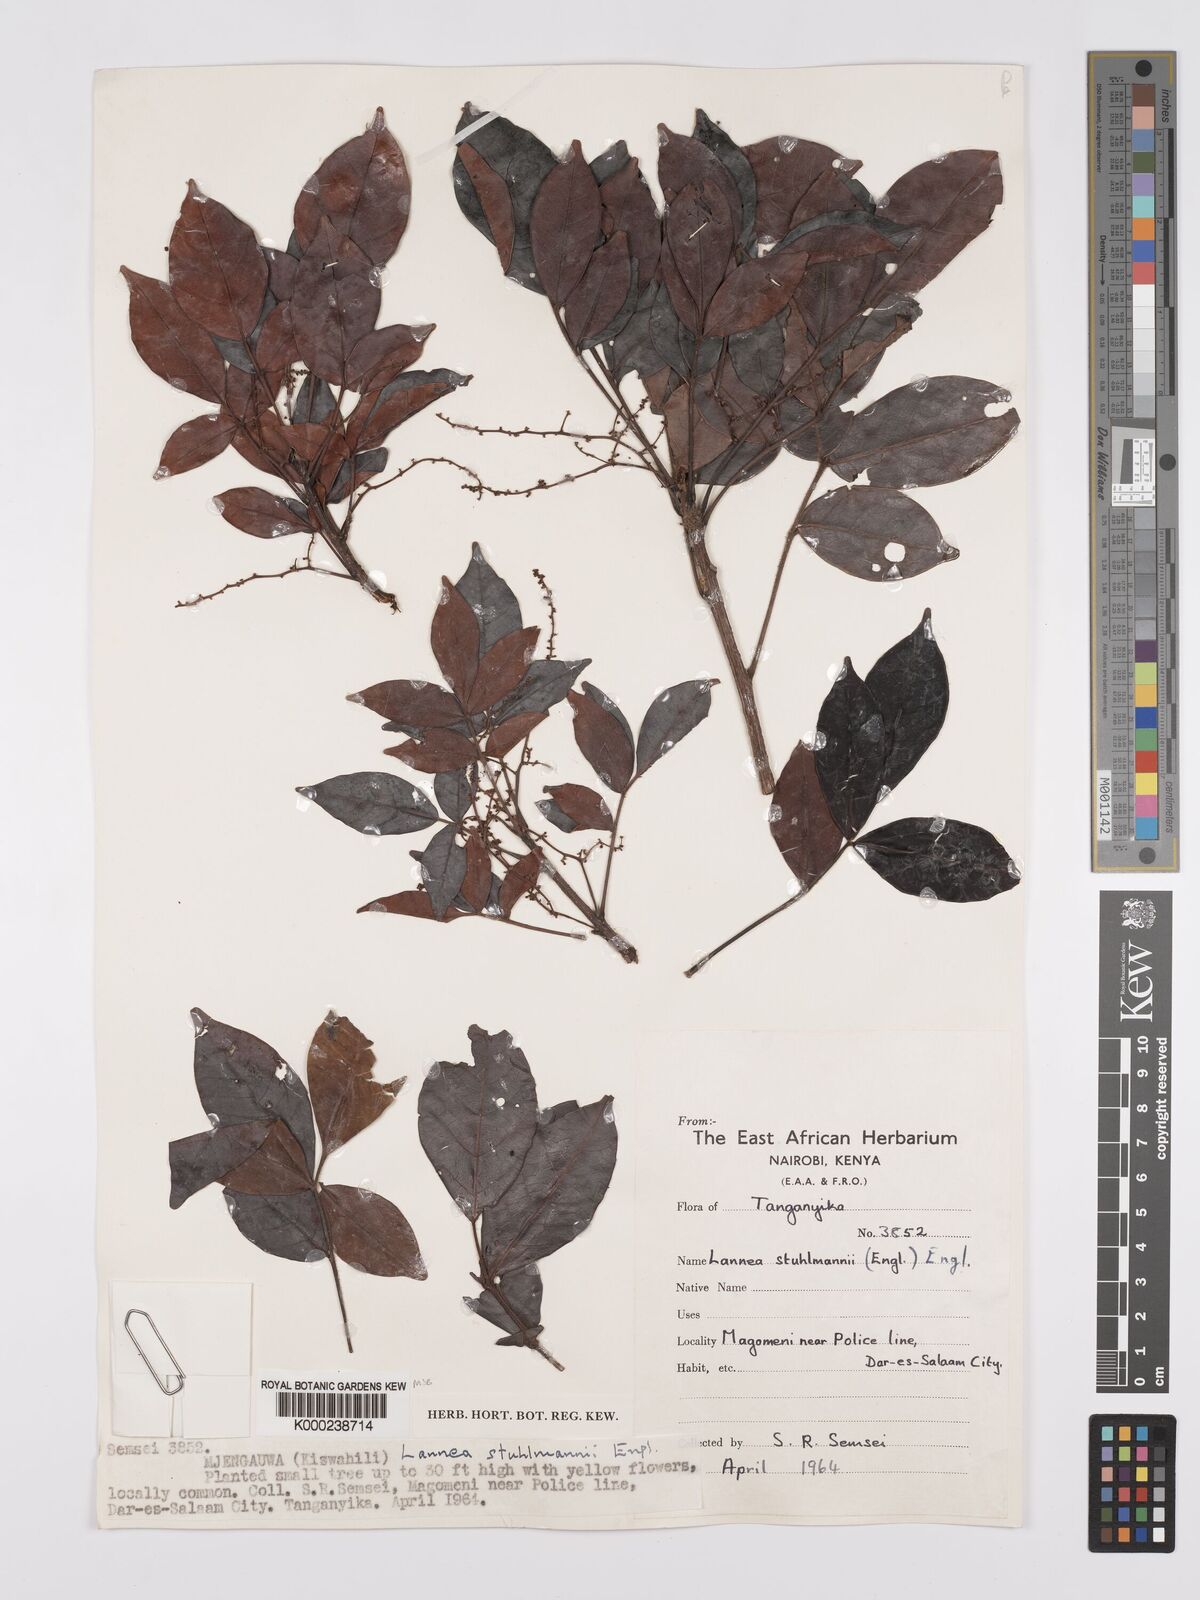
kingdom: Plantae
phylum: Tracheophyta
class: Magnoliopsida
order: Sapindales
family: Anacardiaceae
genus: Lannea
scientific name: Lannea schweinfurthii
